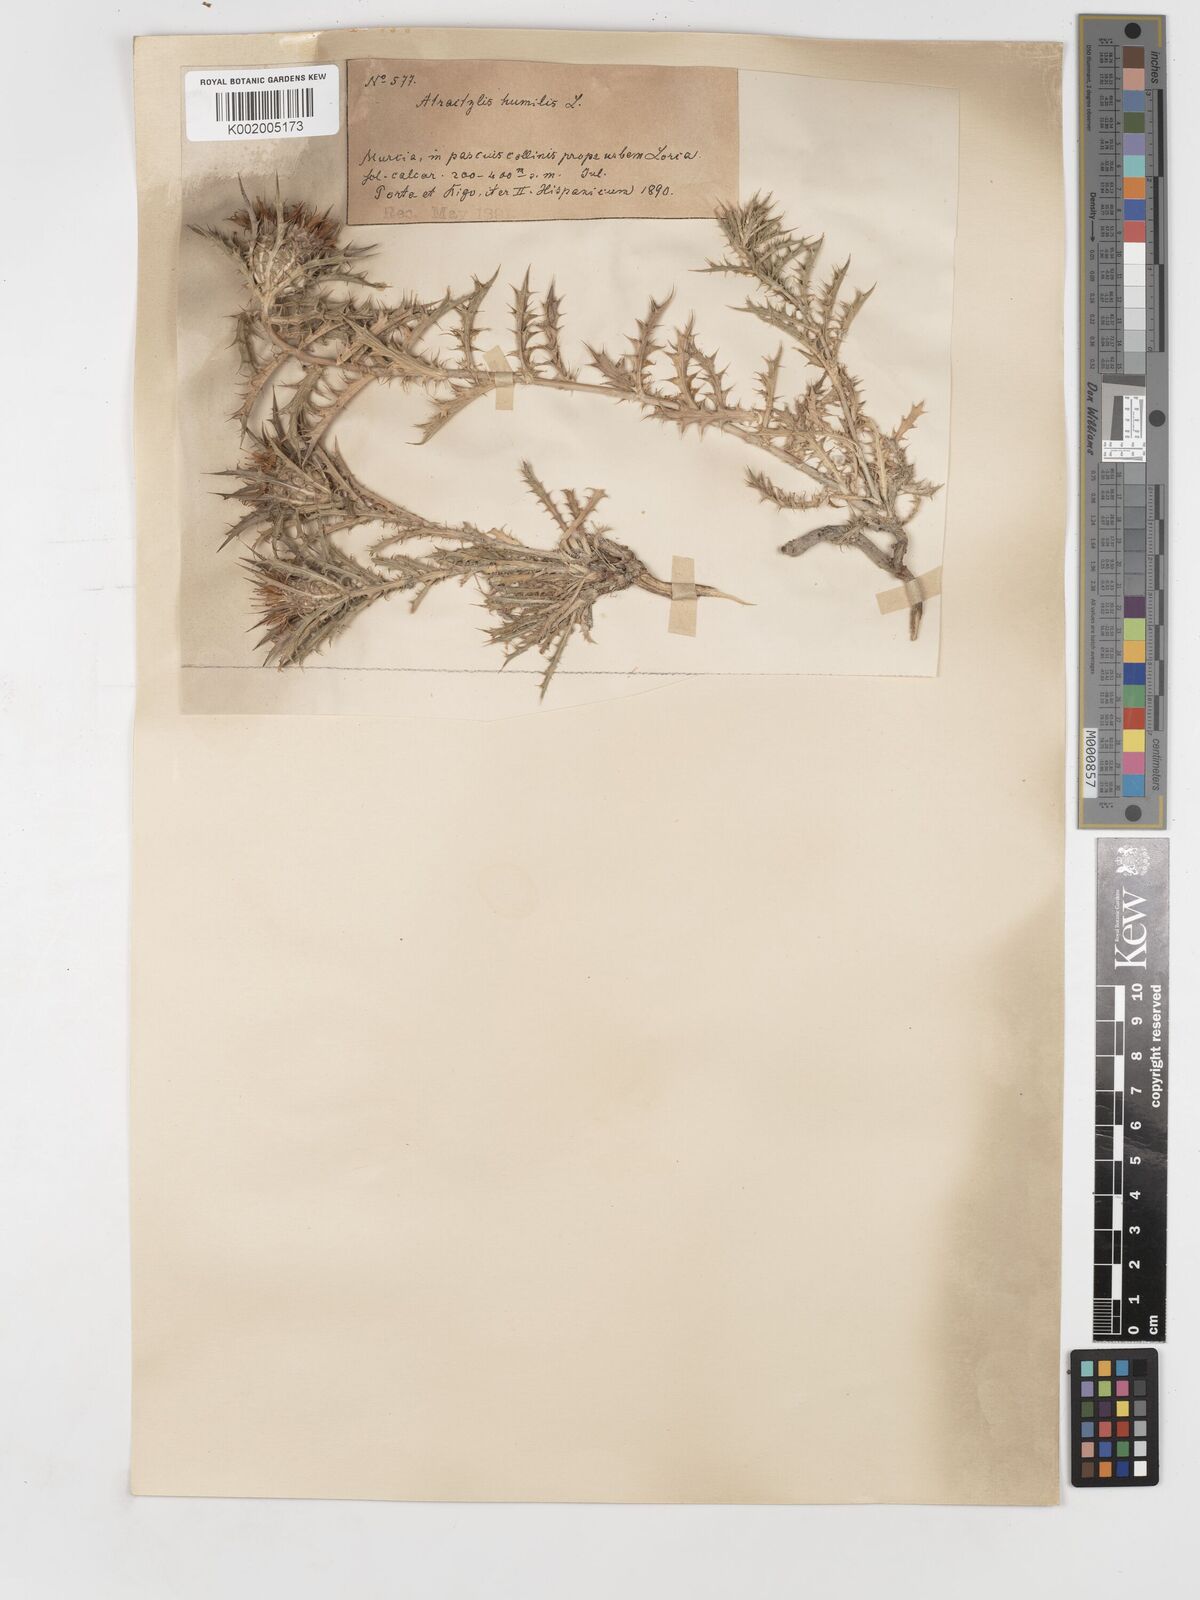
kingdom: Plantae
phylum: Tracheophyta
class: Magnoliopsida
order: Asterales
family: Asteraceae
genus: Atractylis
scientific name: Atractylis humilis
